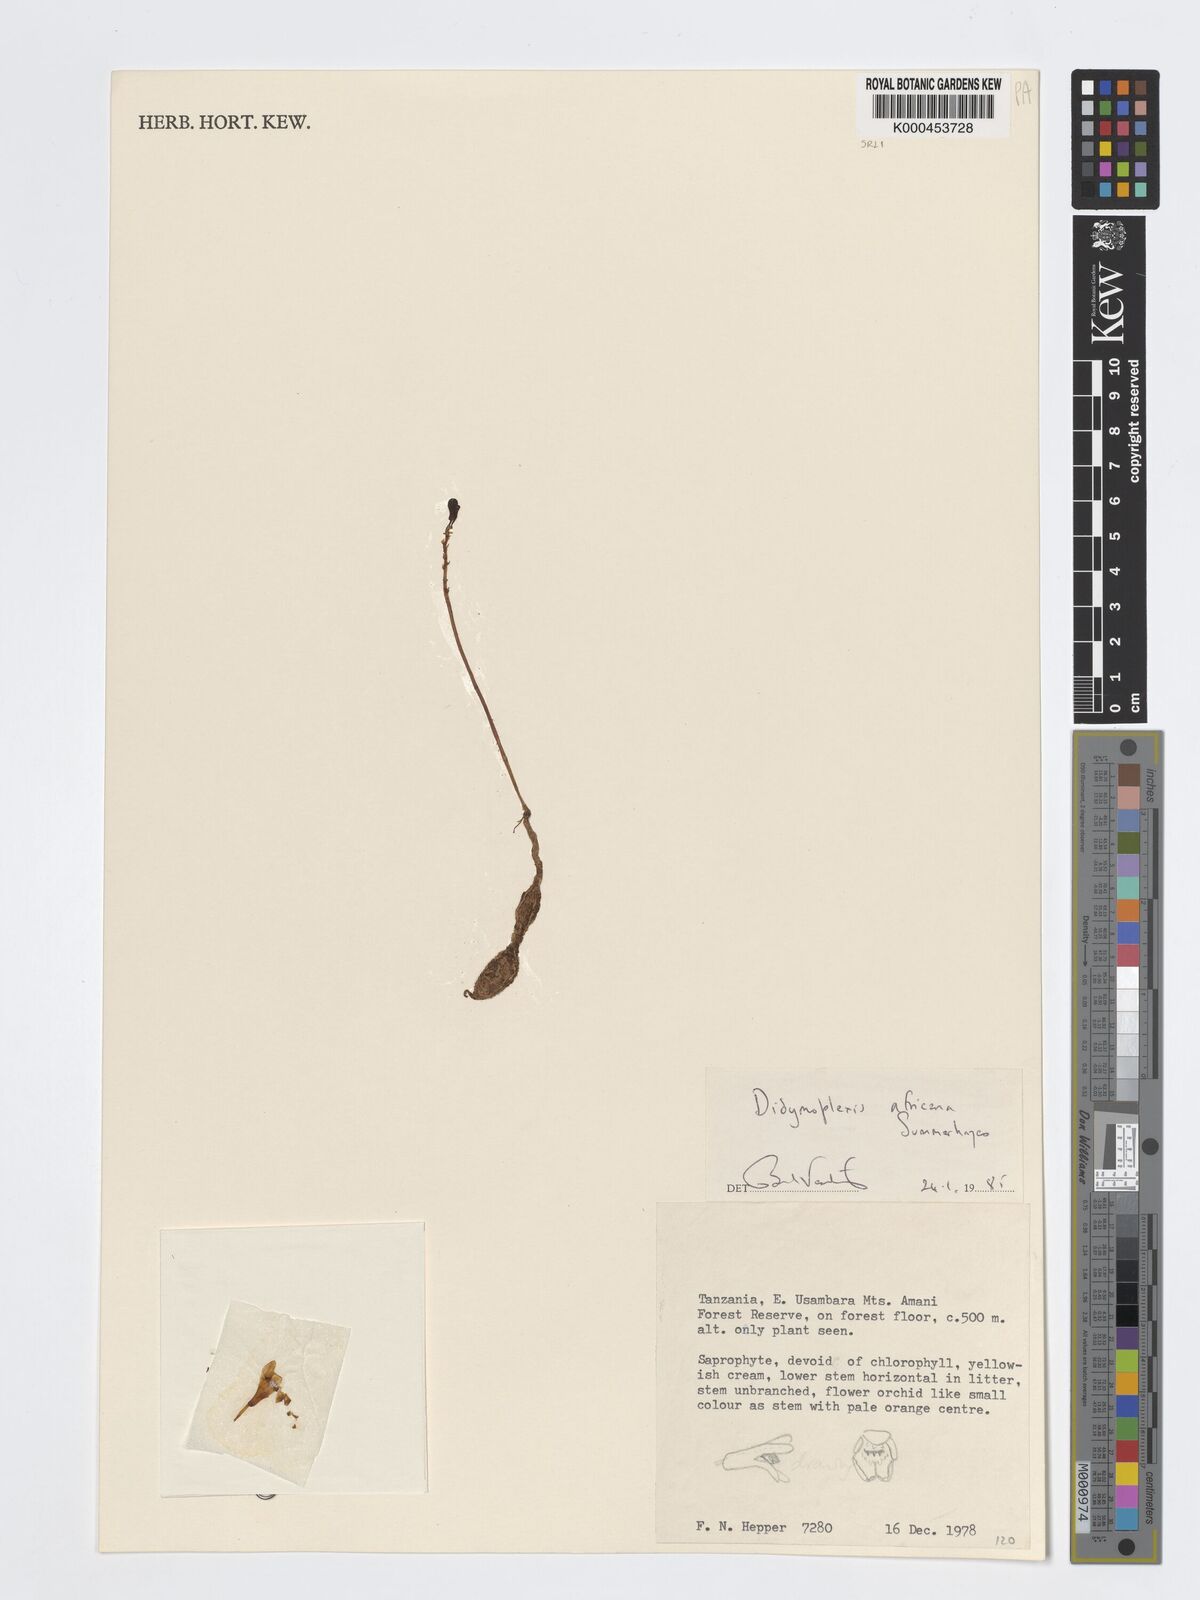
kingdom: Plantae
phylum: Tracheophyta
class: Liliopsida
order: Asparagales
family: Orchidaceae
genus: Didymoplexis
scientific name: Didymoplexis africana
